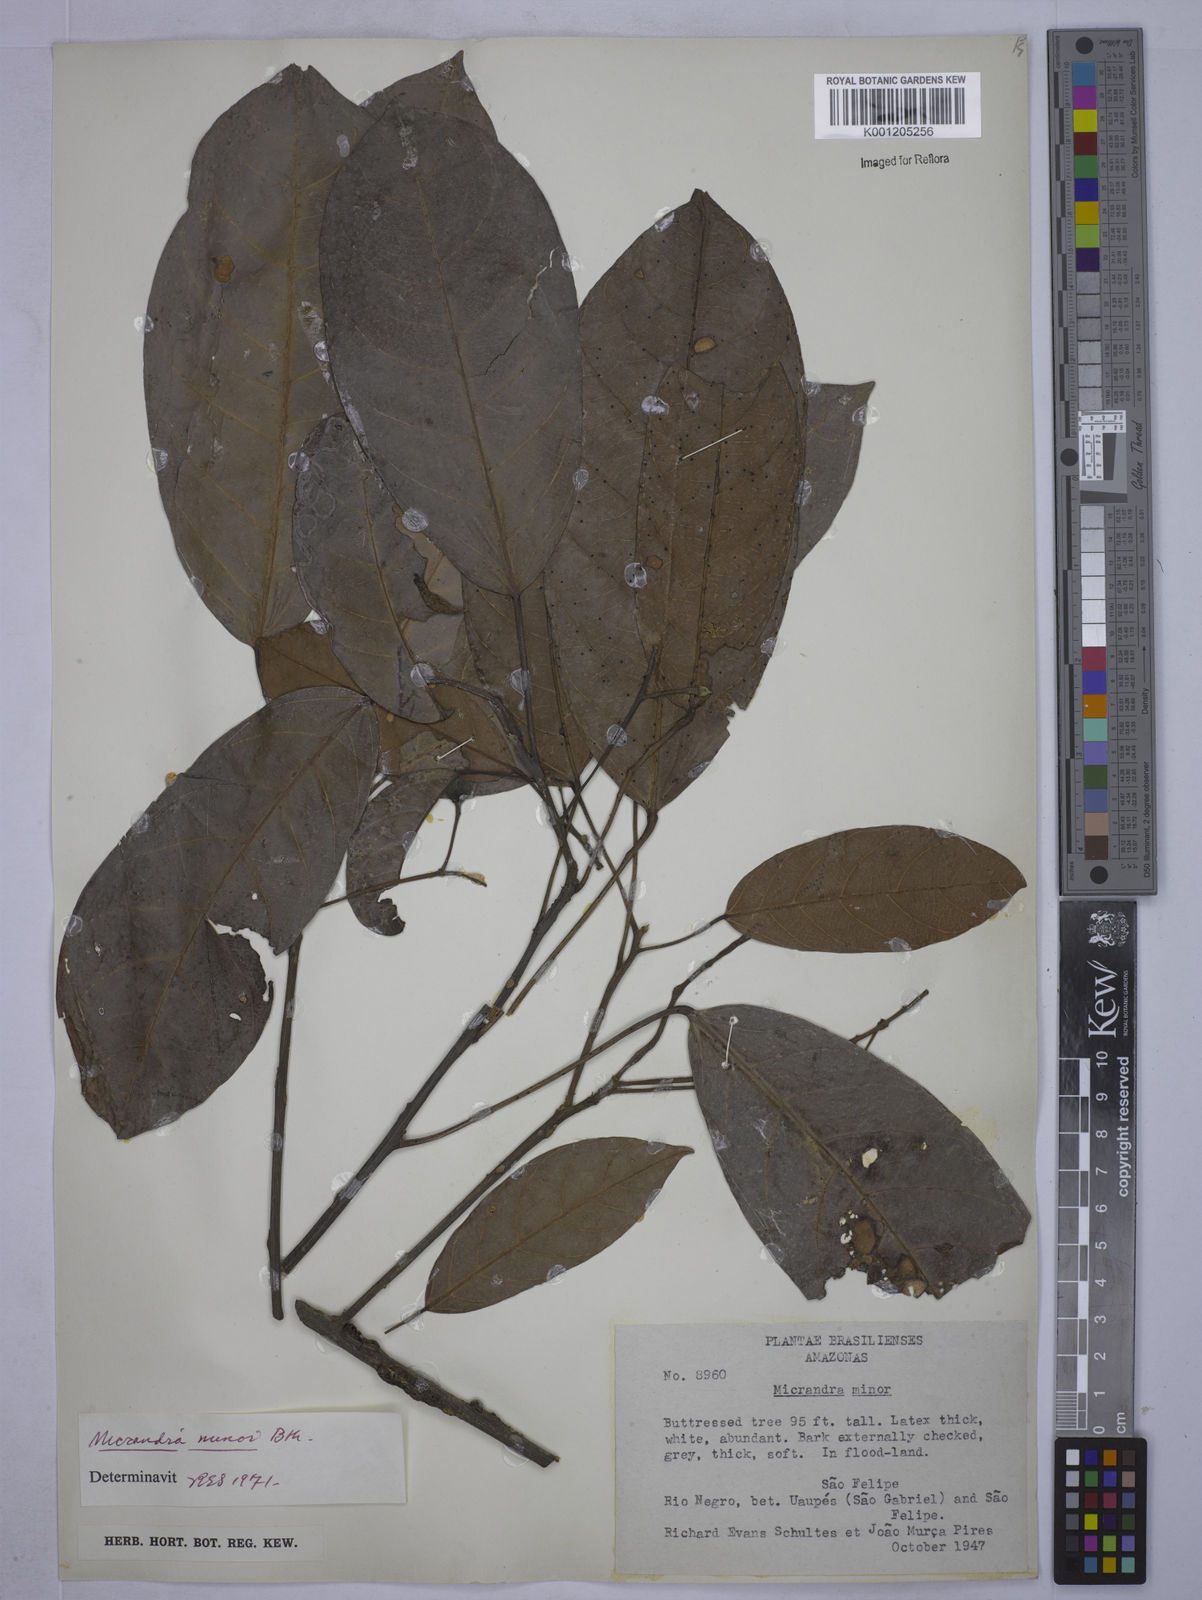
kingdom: Plantae
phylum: Tracheophyta
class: Magnoliopsida
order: Malpighiales
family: Euphorbiaceae
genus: Micrandra
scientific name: Micrandra minor
